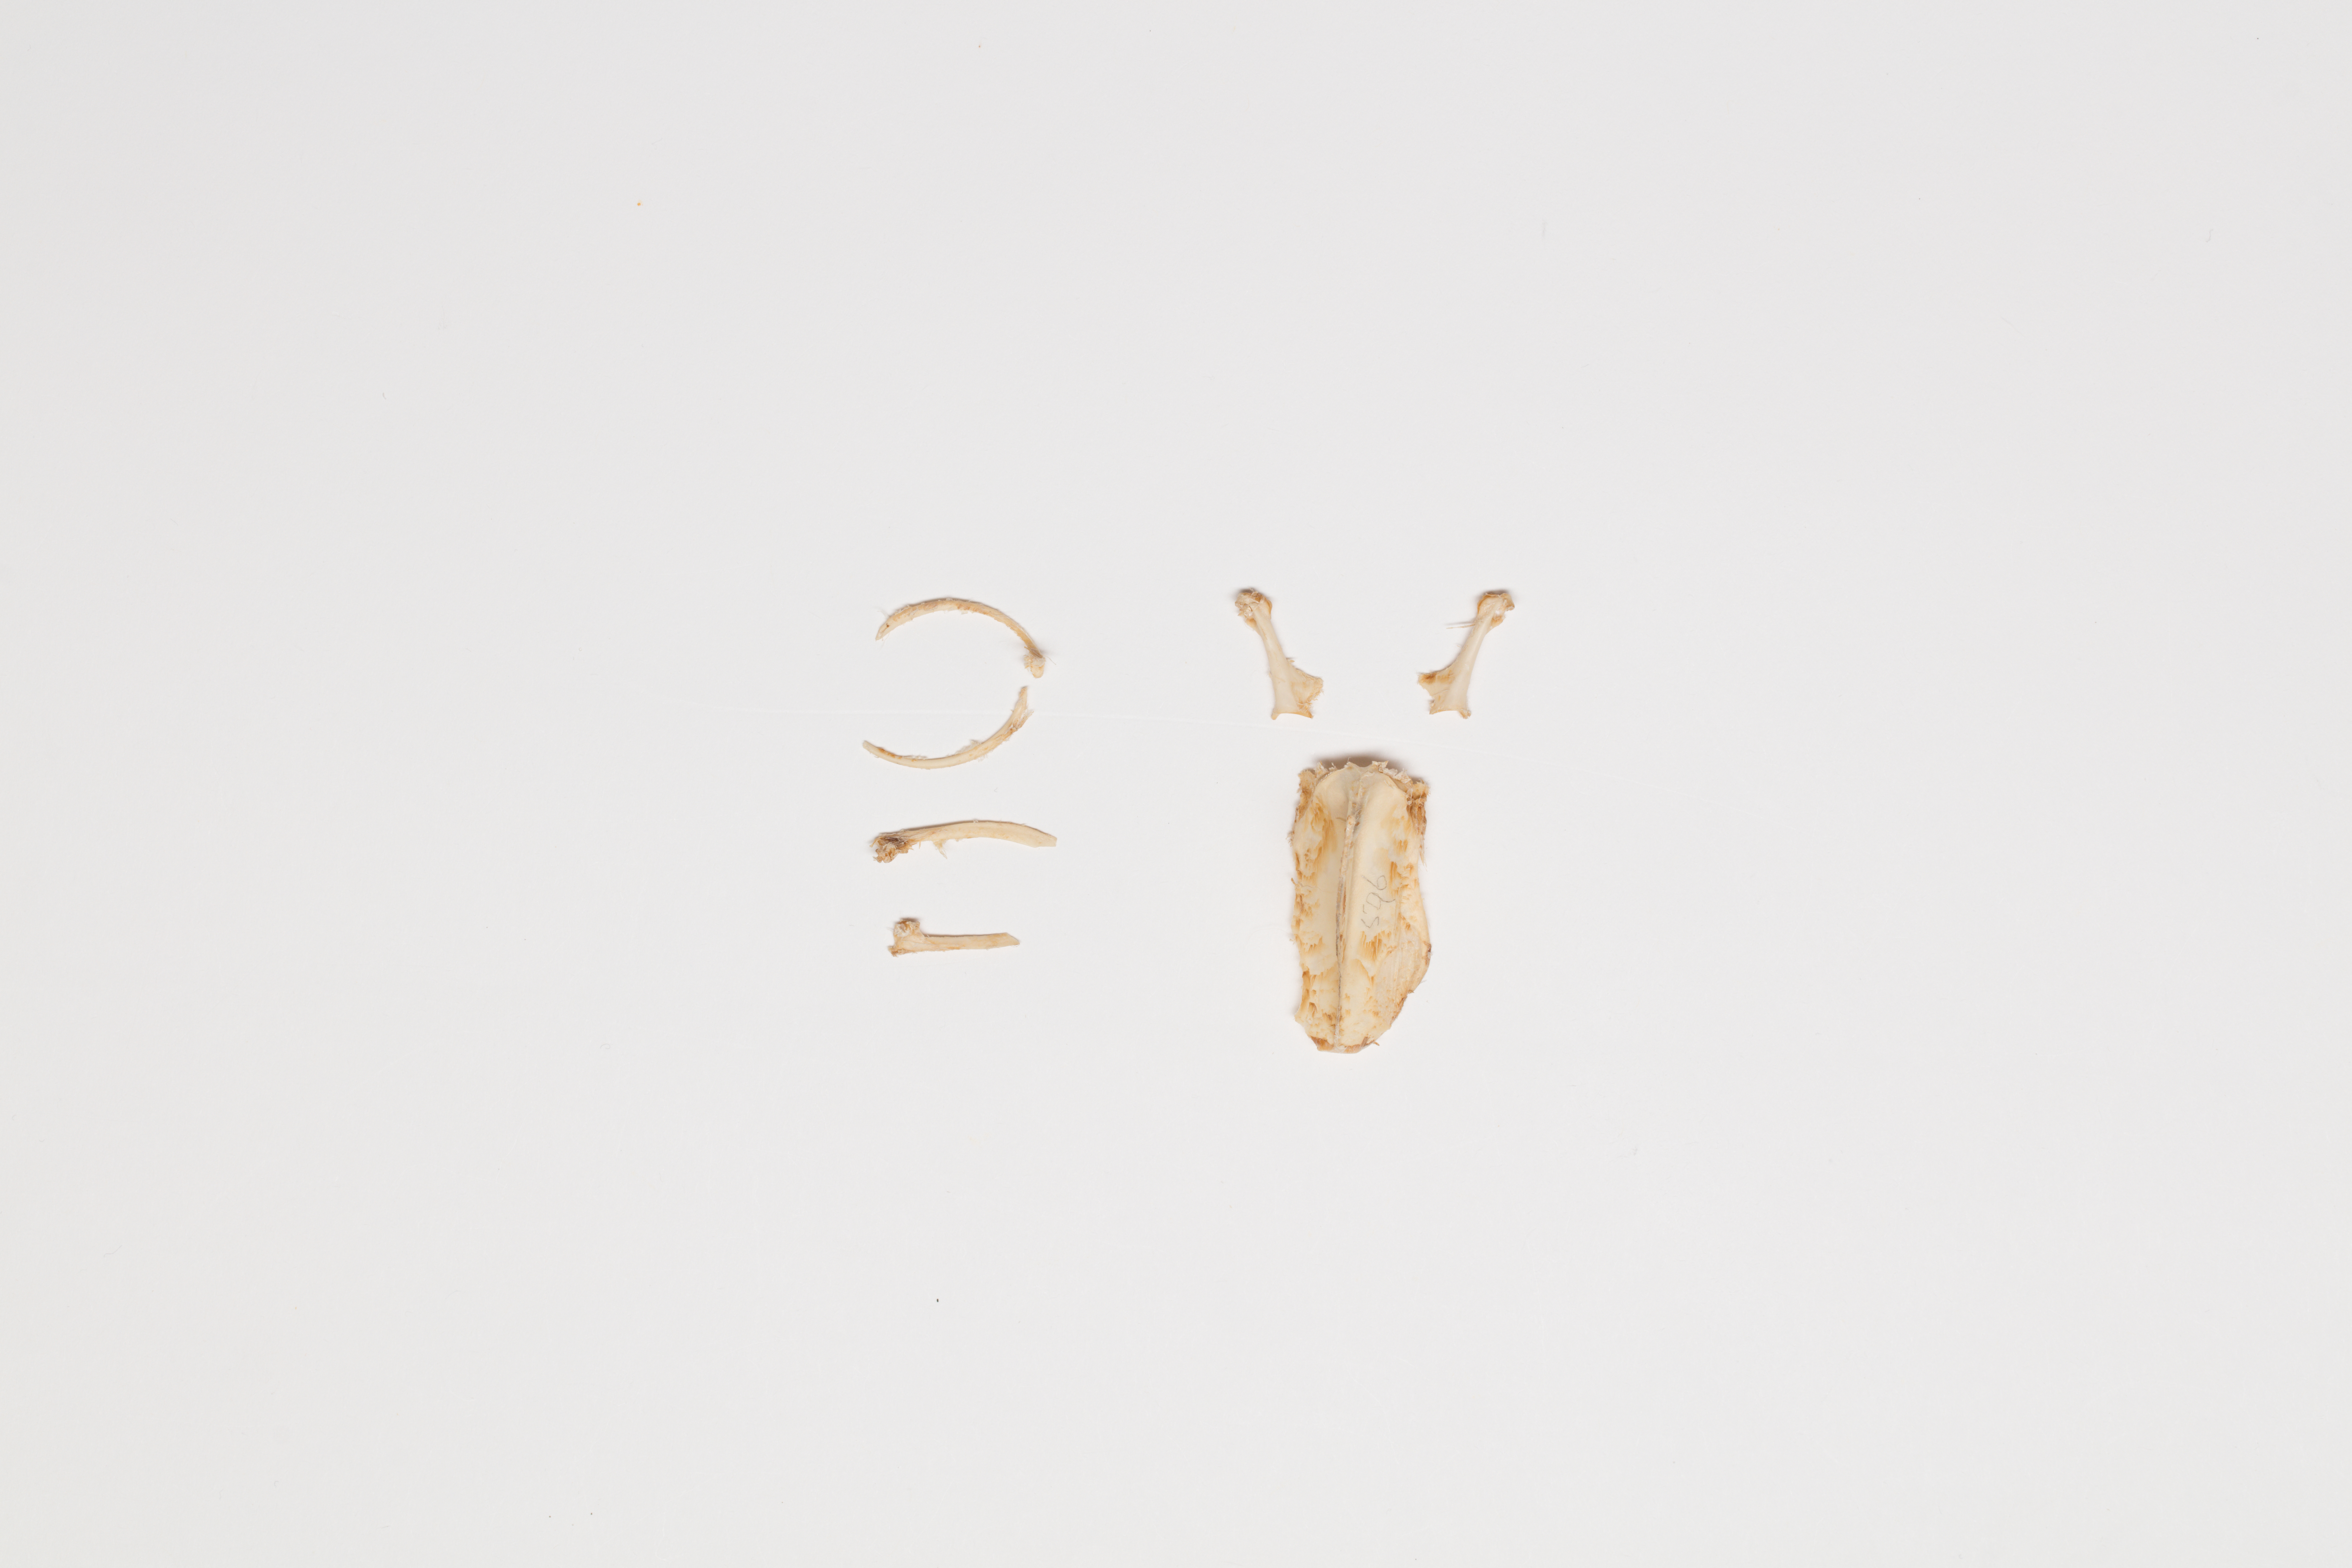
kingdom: Animalia
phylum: Chordata
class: Aves
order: Charadriiformes
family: Scolopacidae
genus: Coenocorypha
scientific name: Coenocorypha aucklandica
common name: Subantarctic snipe
